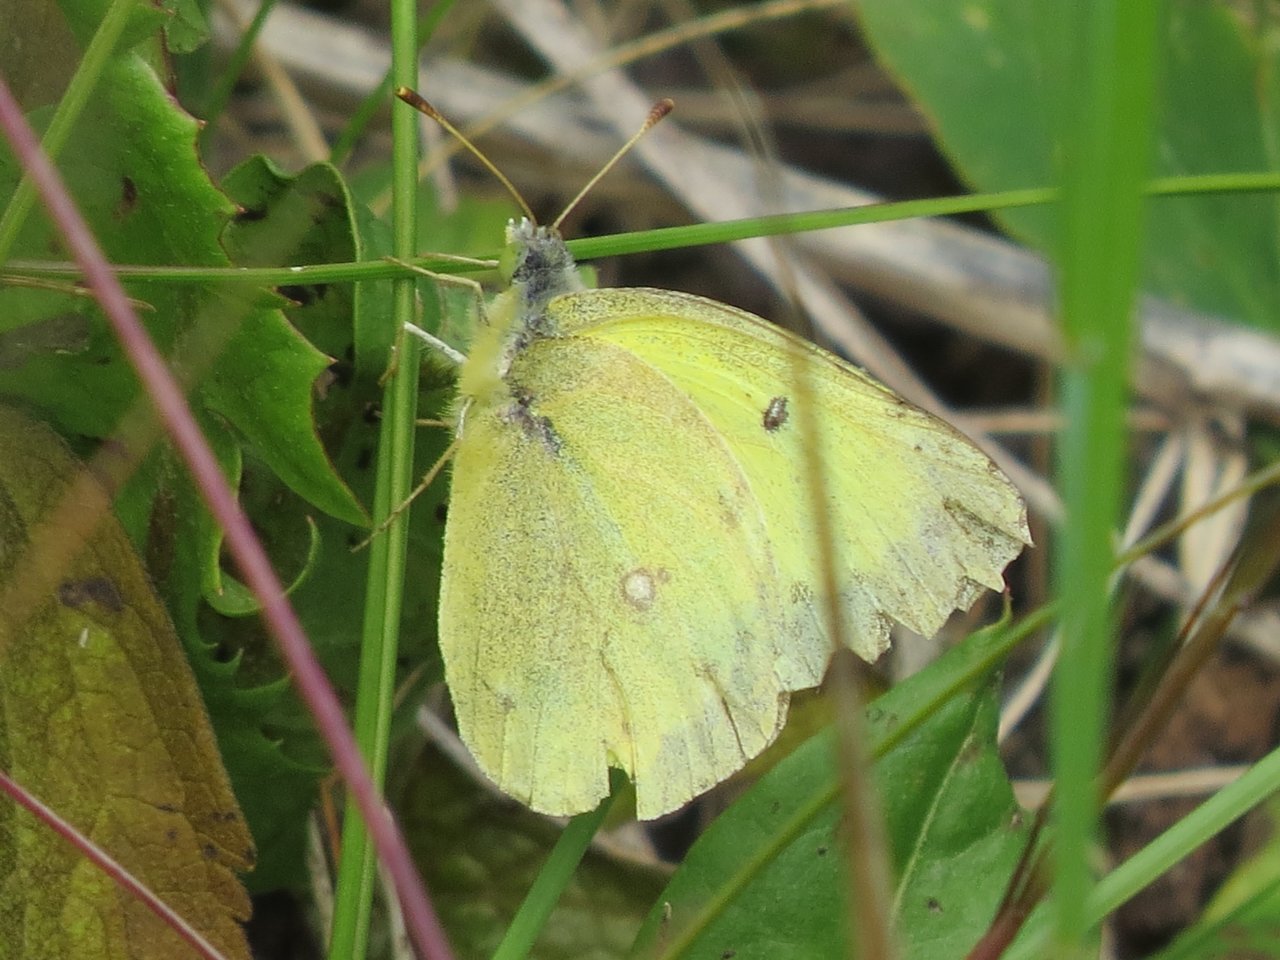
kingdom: Animalia
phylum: Arthropoda
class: Insecta
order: Lepidoptera
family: Pieridae
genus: Colias
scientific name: Colias philodice
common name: Clouded Sulphur
